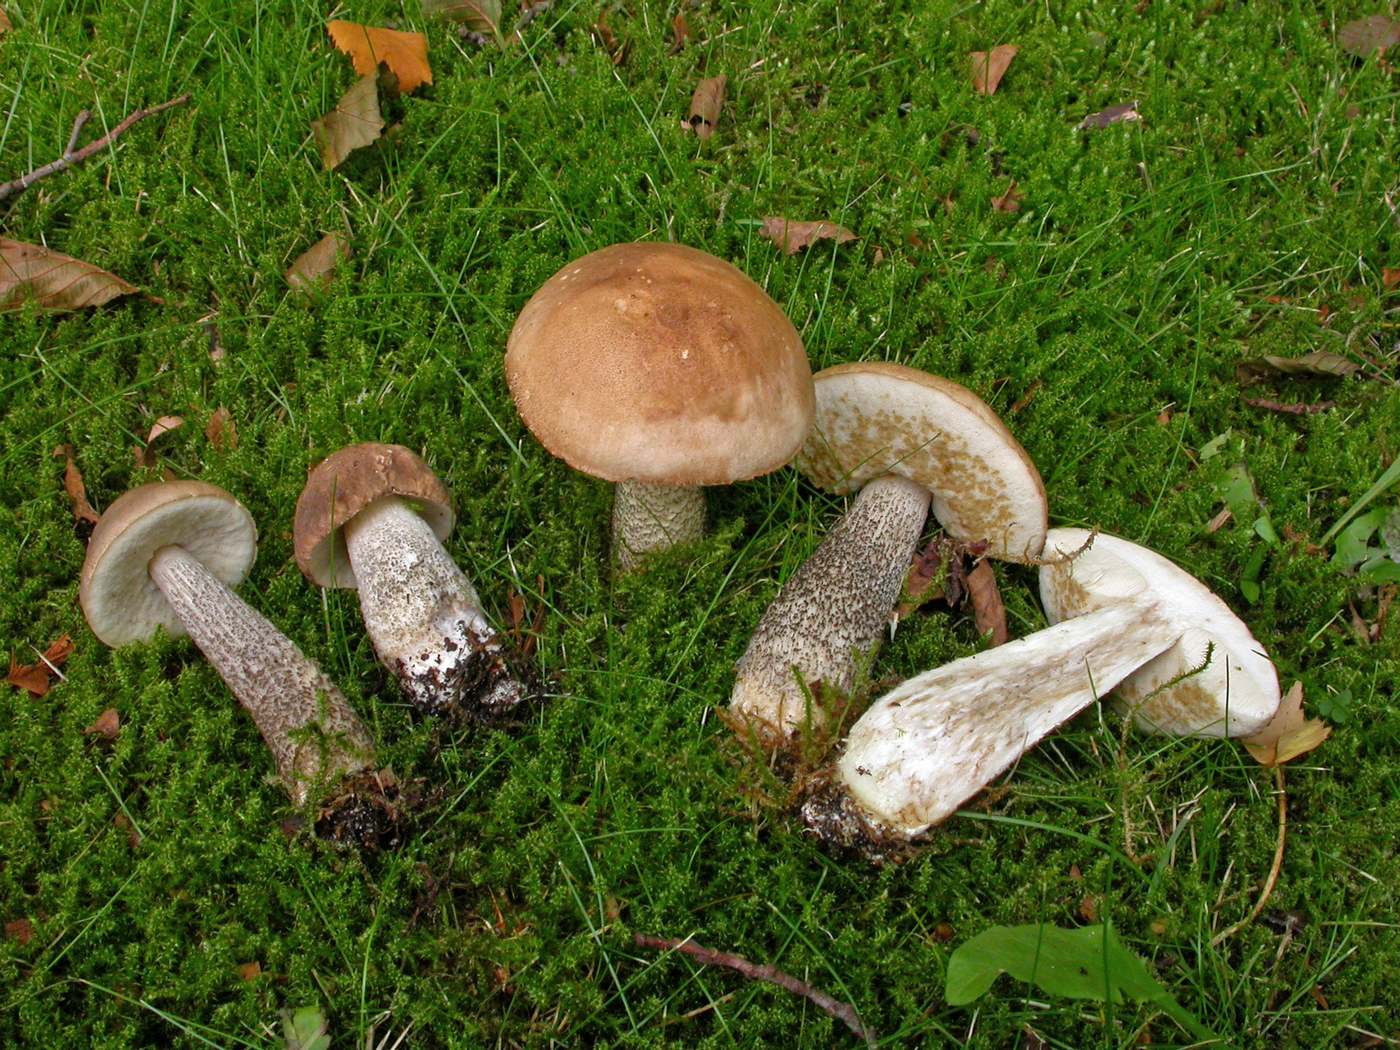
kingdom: Fungi
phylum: Basidiomycota
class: Agaricomycetes
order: Boletales
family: Boletaceae
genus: Leccinum
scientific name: Leccinum scabrum
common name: brun skælrørhat
